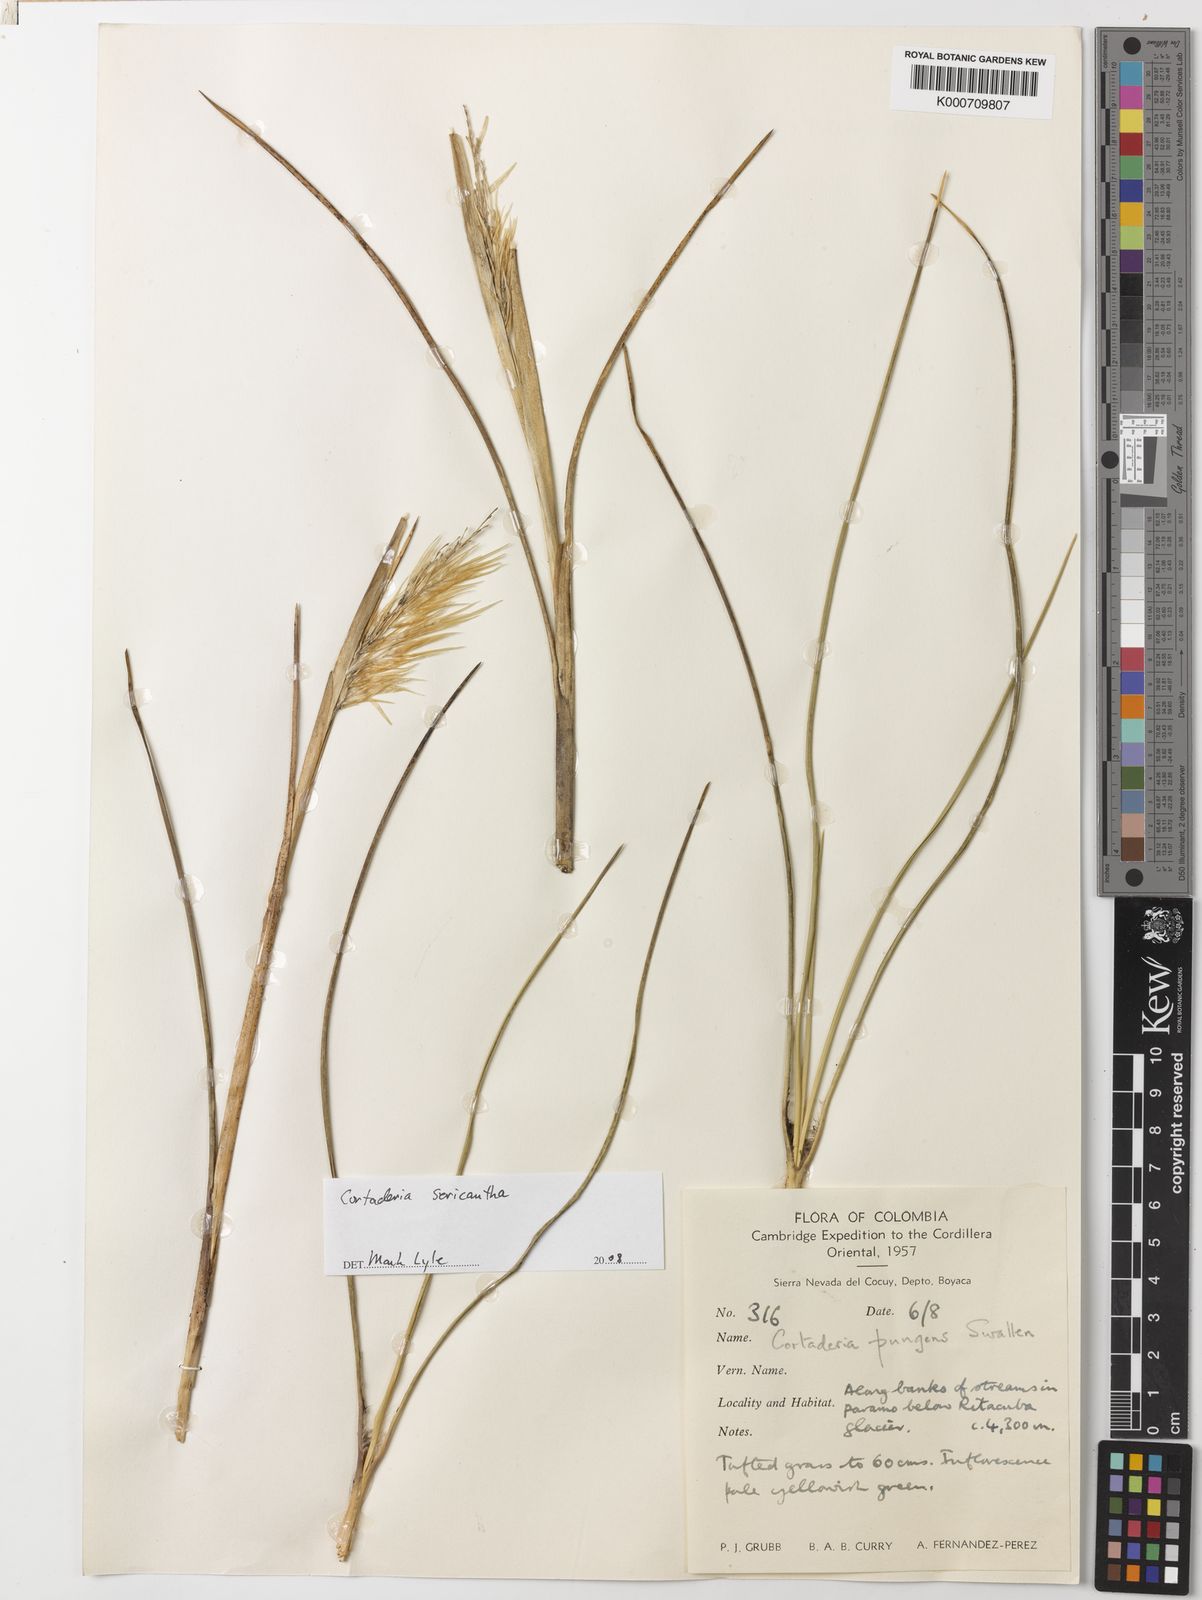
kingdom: Plantae
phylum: Tracheophyta
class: Liliopsida
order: Poales
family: Poaceae
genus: Cortaderia
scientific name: Cortaderia sericantha
